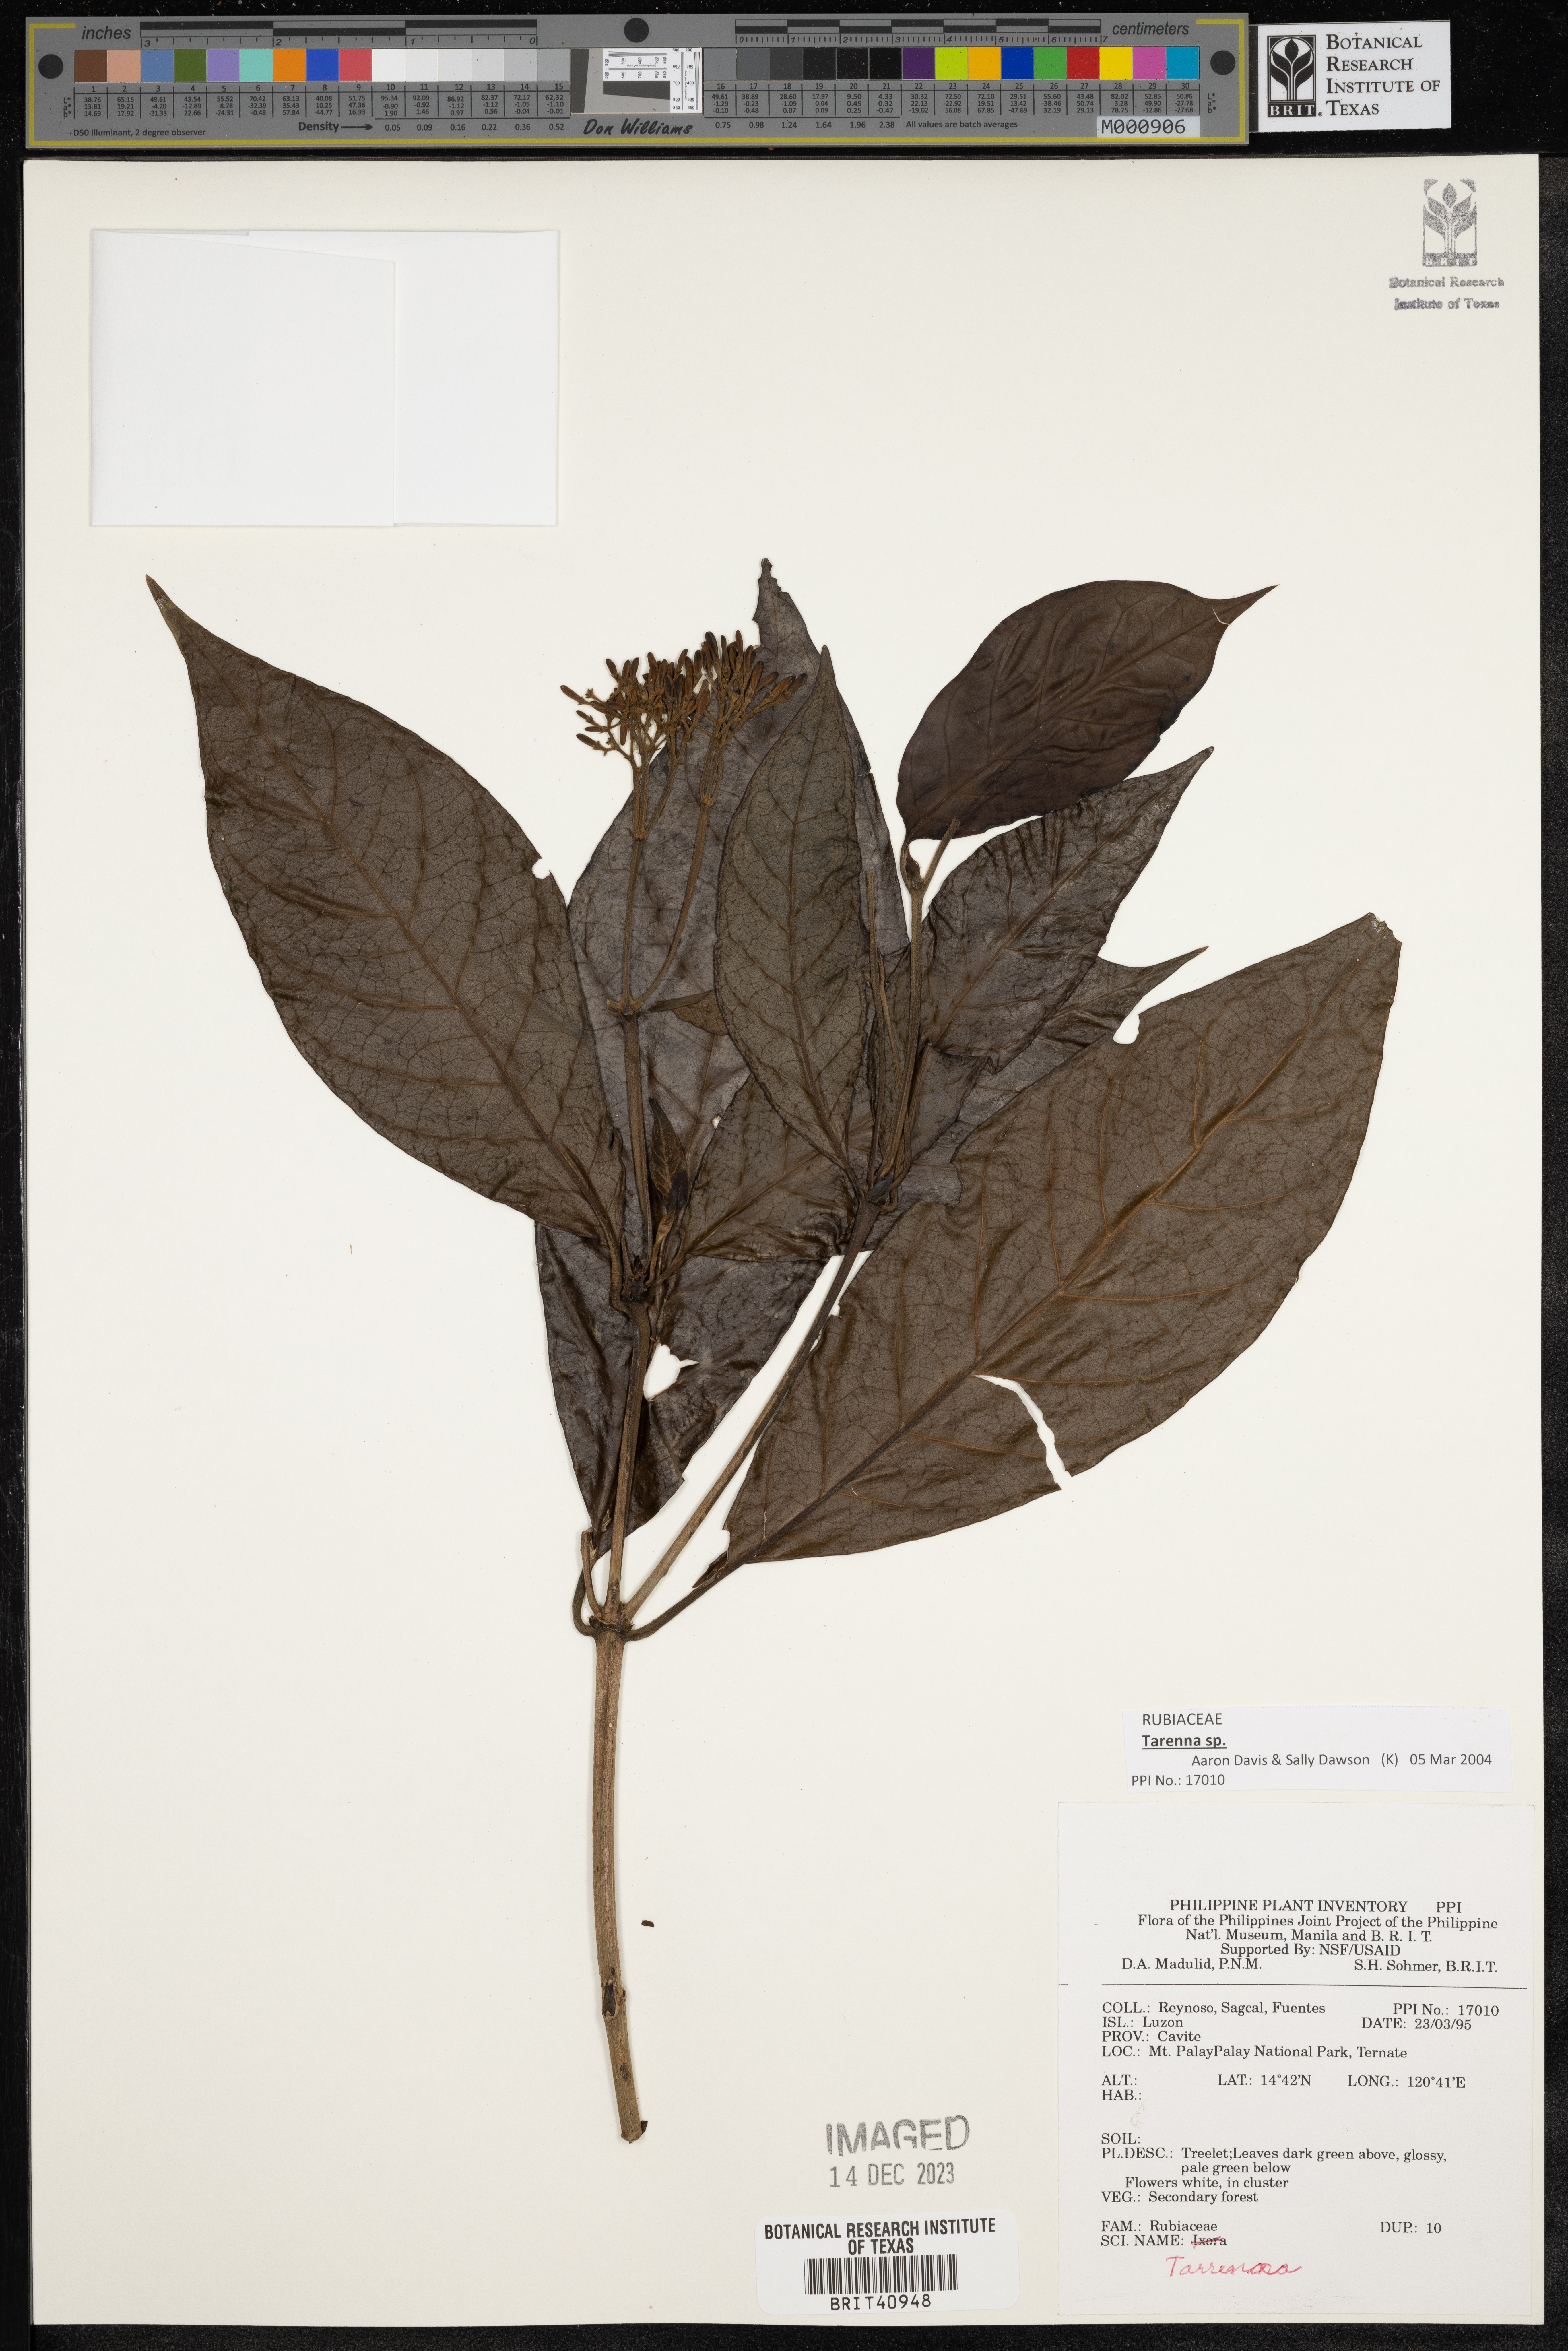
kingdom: Plantae
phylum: Tracheophyta
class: Magnoliopsida
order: Gentianales
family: Rubiaceae
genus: Tarenna
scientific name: Tarenna
